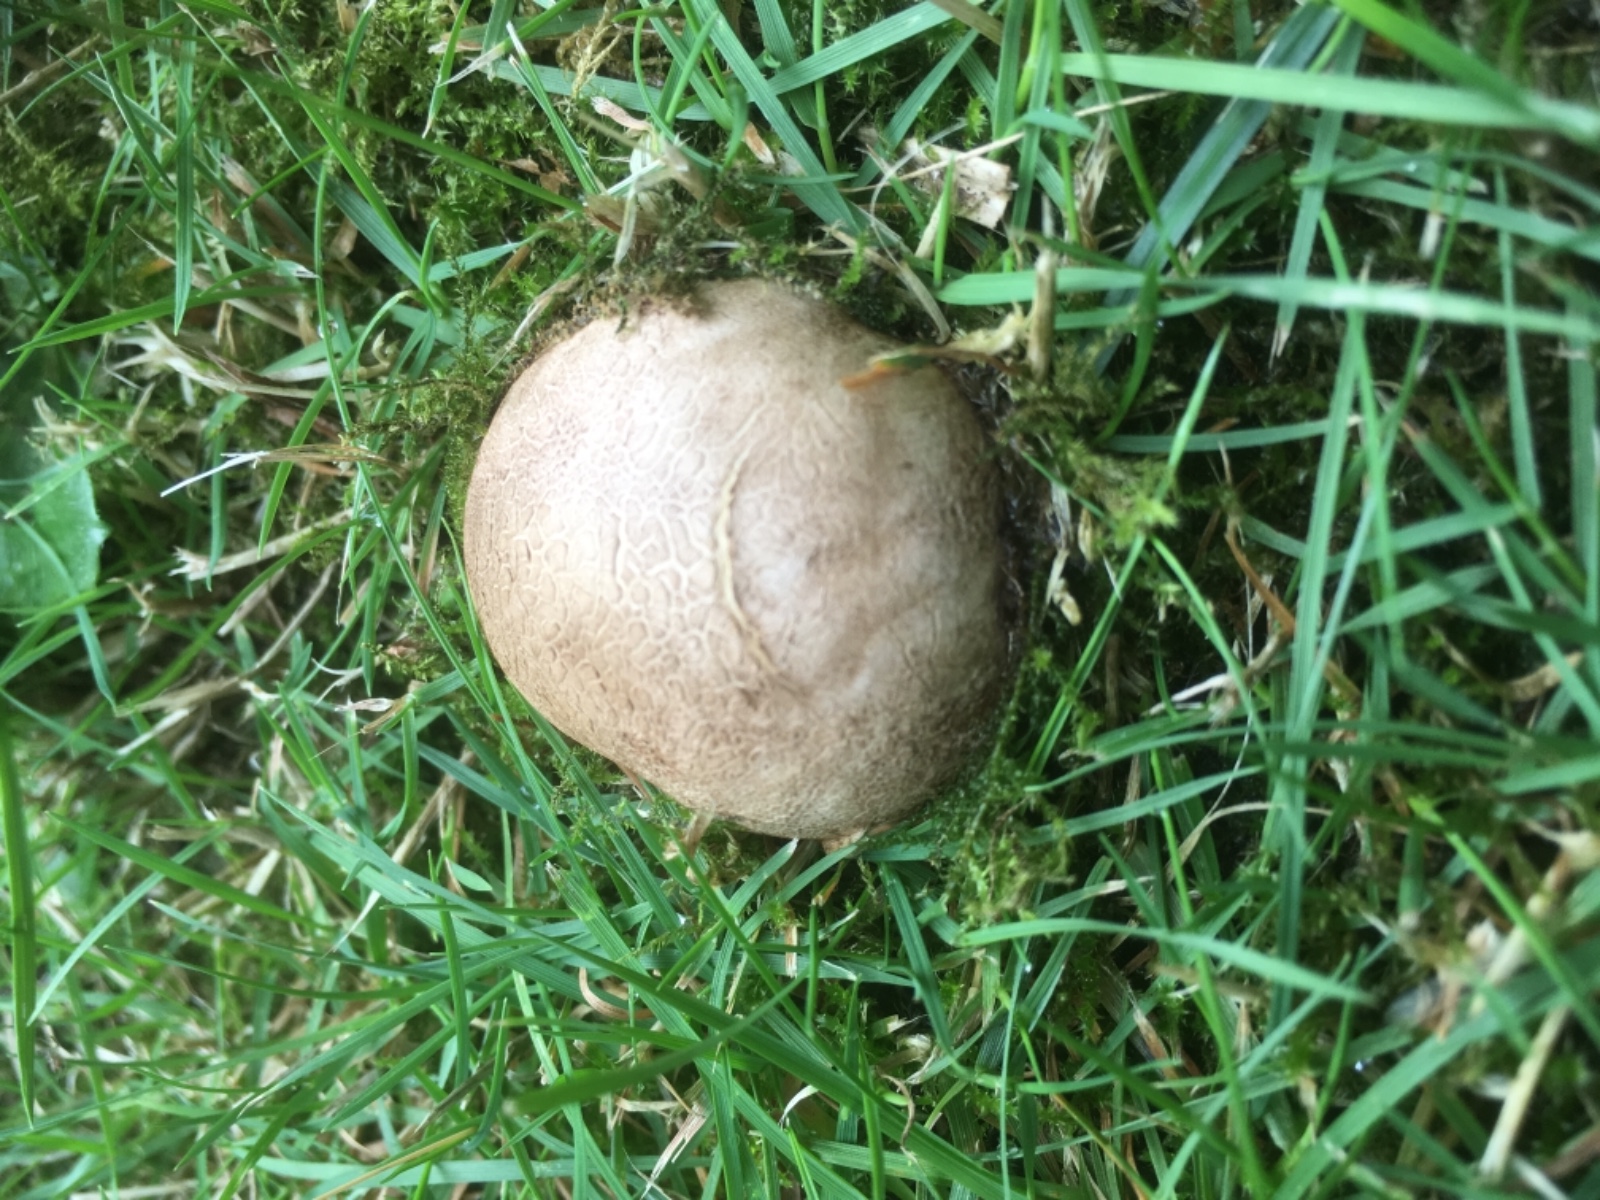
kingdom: Fungi
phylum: Basidiomycota
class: Agaricomycetes
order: Boletales
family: Sclerodermataceae
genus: Scleroderma
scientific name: Scleroderma
